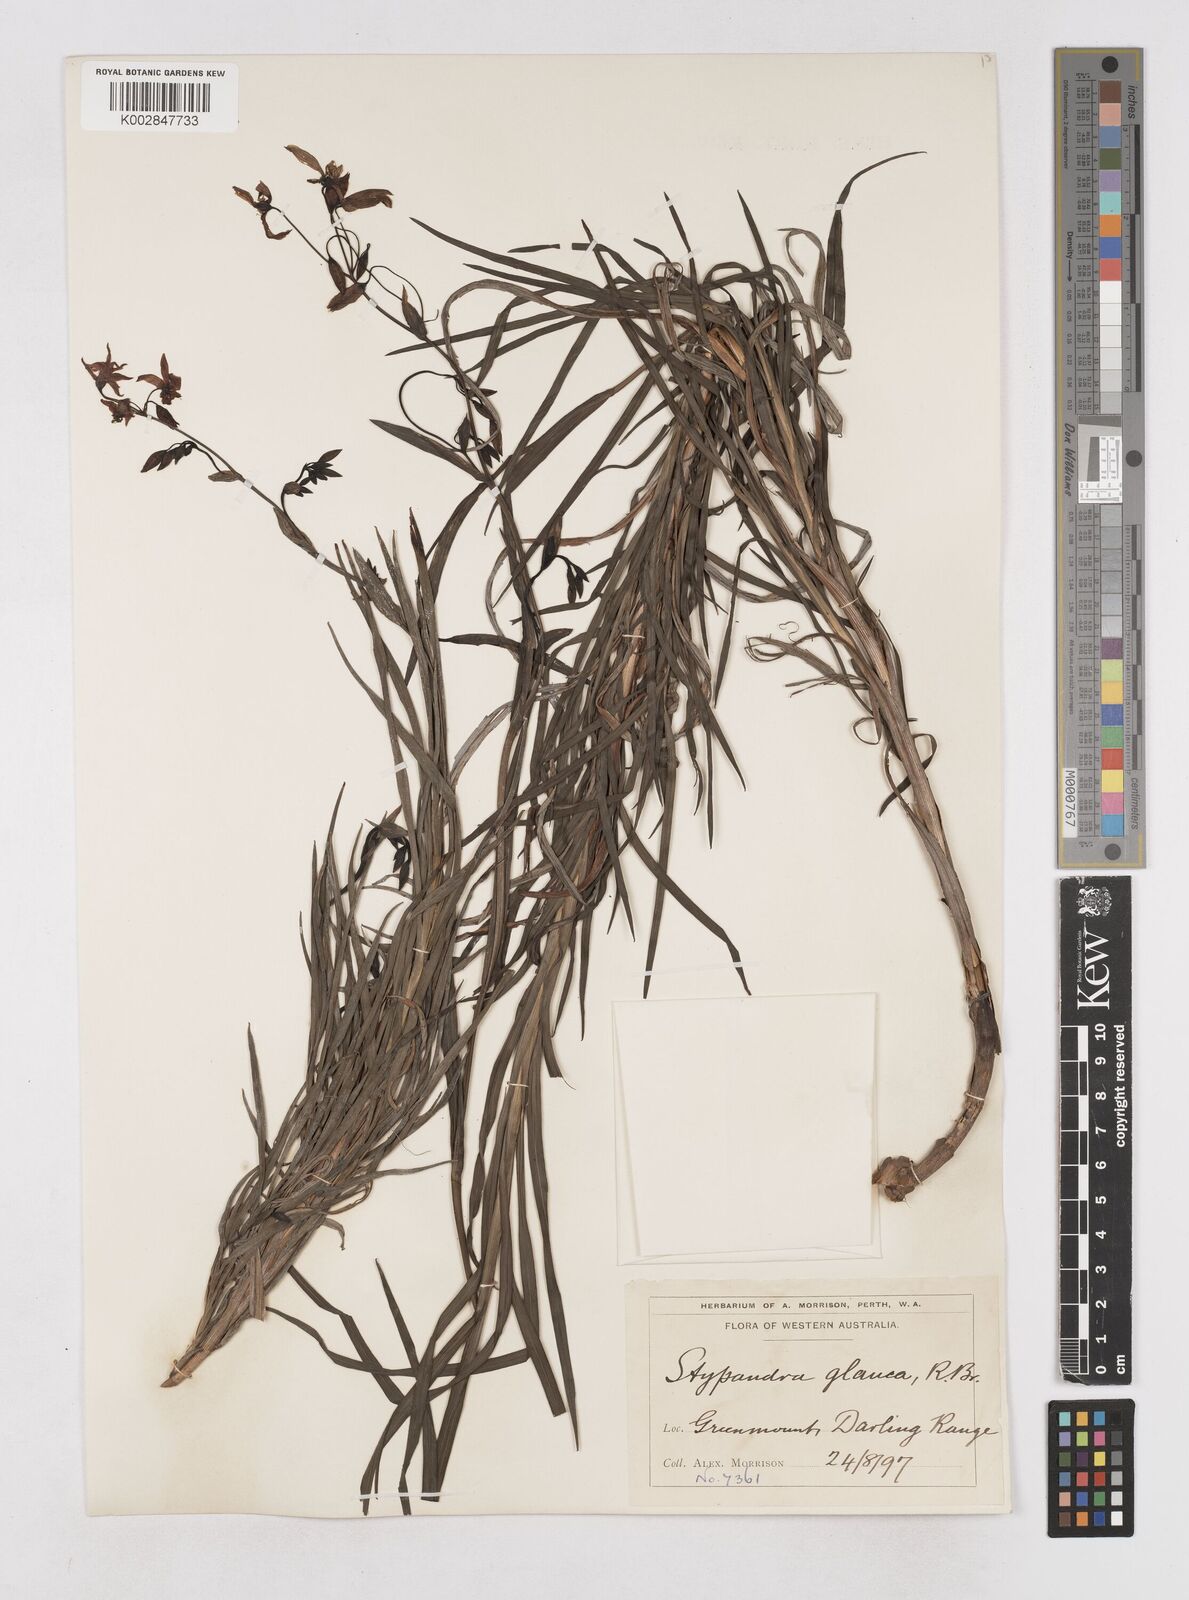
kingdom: Plantae
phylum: Tracheophyta
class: Liliopsida
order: Asparagales
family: Asphodelaceae
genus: Stypandra
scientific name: Stypandra glauca
